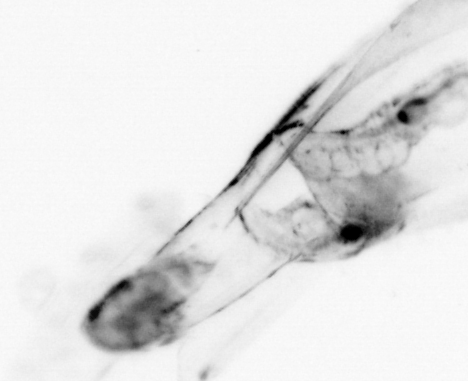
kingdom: Animalia
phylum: Chaetognatha
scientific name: Chaetognatha
